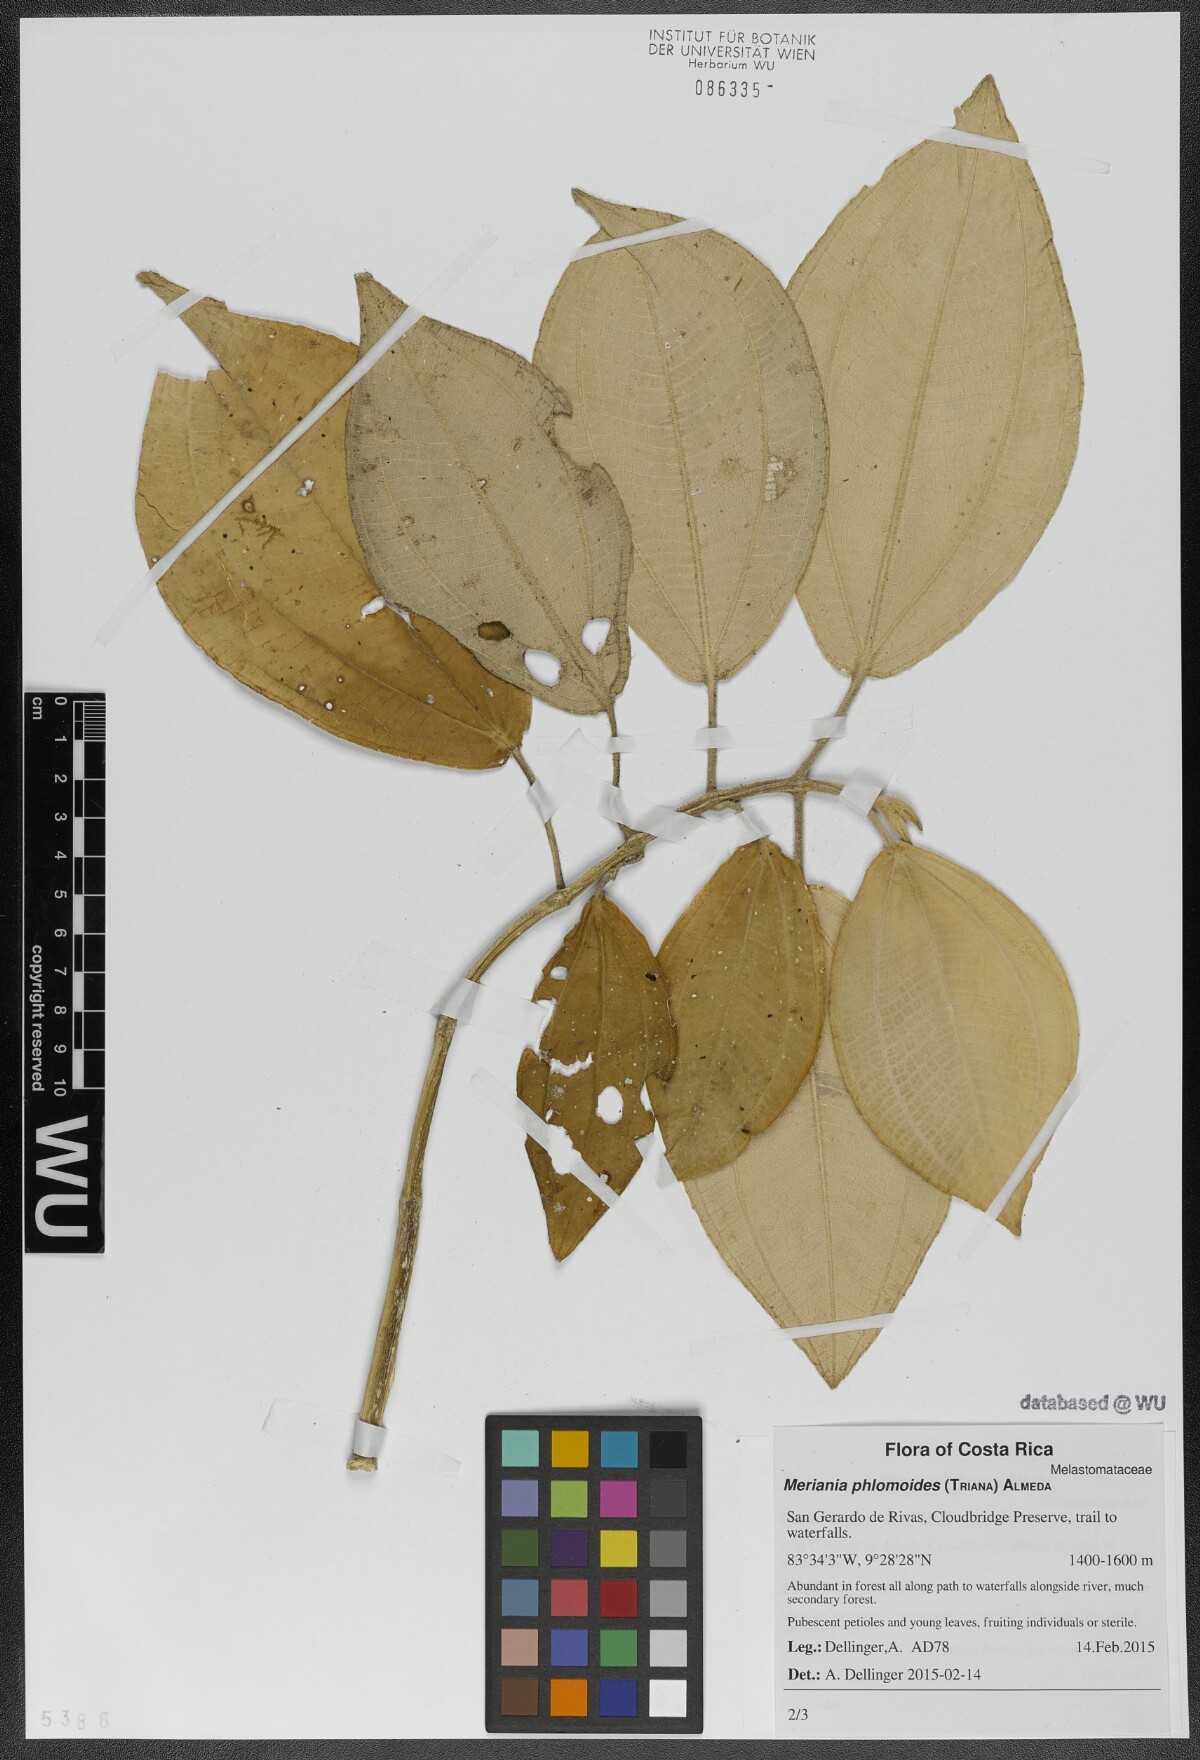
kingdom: Plantae
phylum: Tracheophyta
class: Magnoliopsida
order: Myrtales
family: Melastomataceae
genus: Meriania
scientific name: Meriania phlomoides
